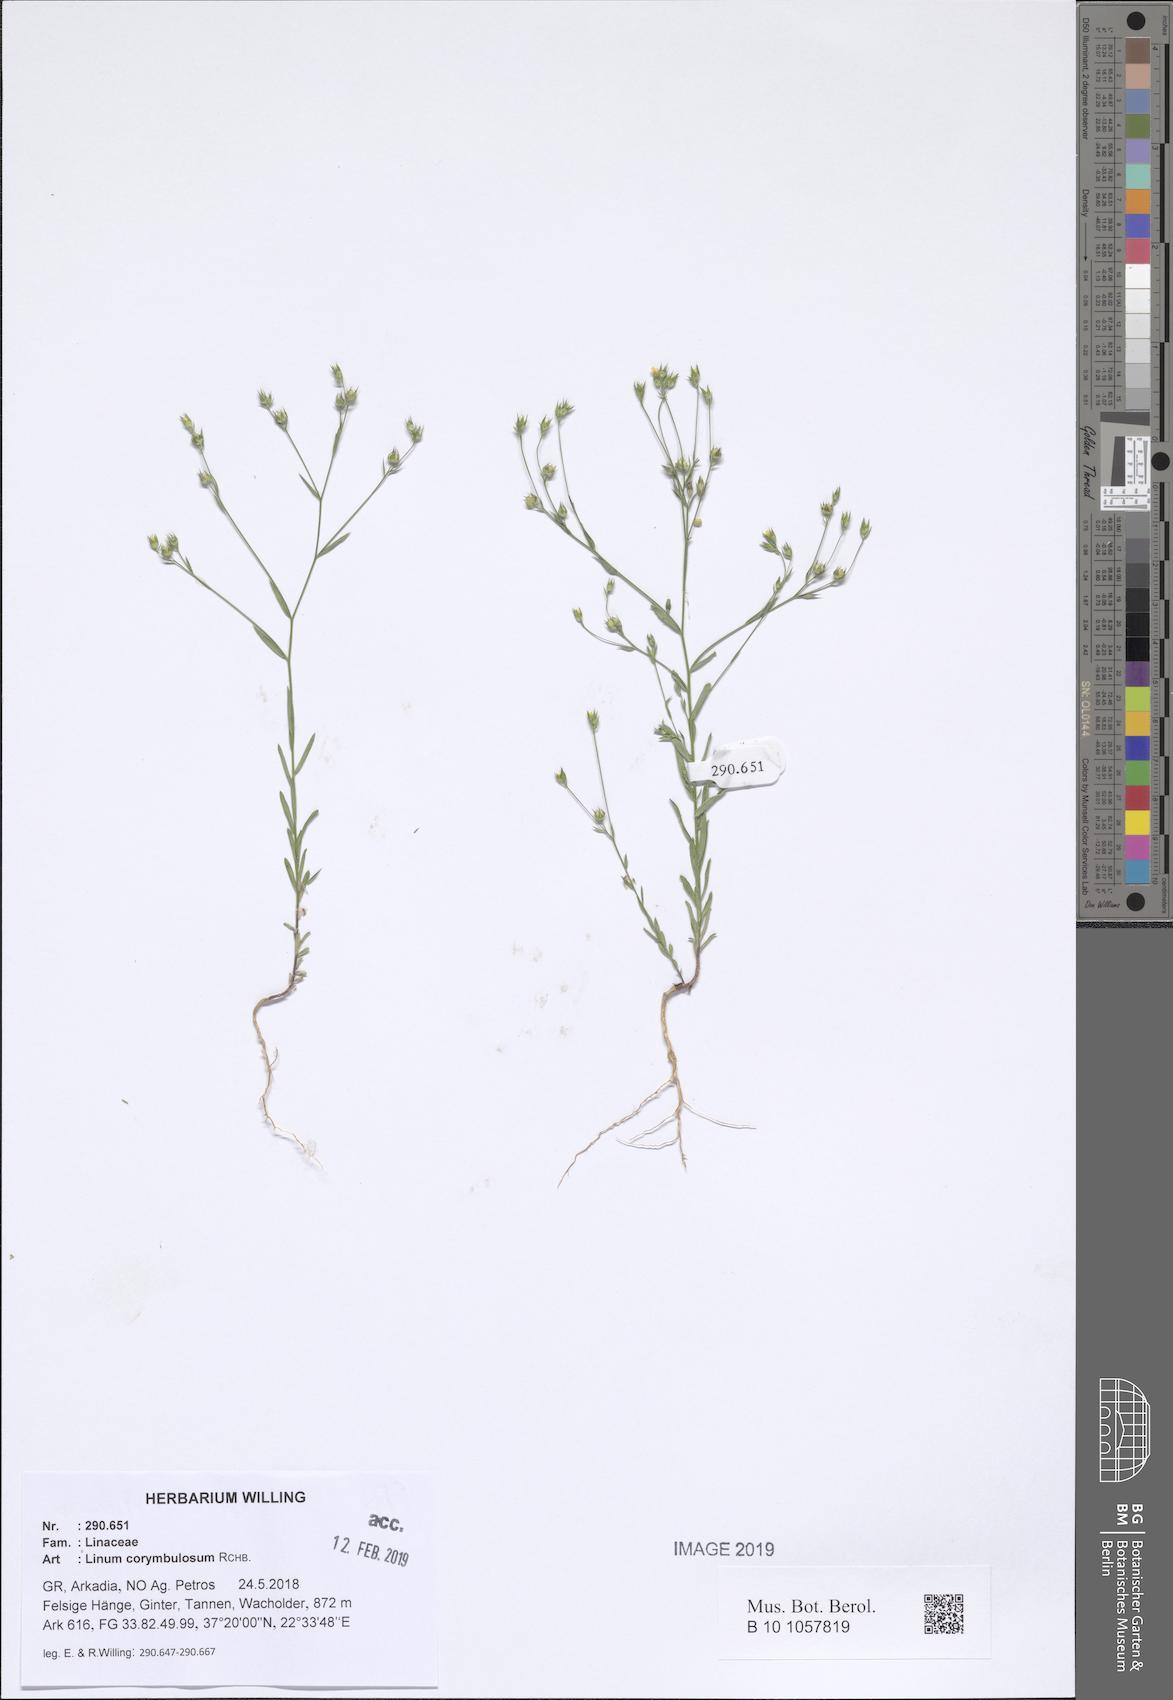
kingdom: Plantae
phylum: Tracheophyta
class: Magnoliopsida
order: Malpighiales
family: Linaceae
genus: Linum
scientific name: Linum corymbulosum
